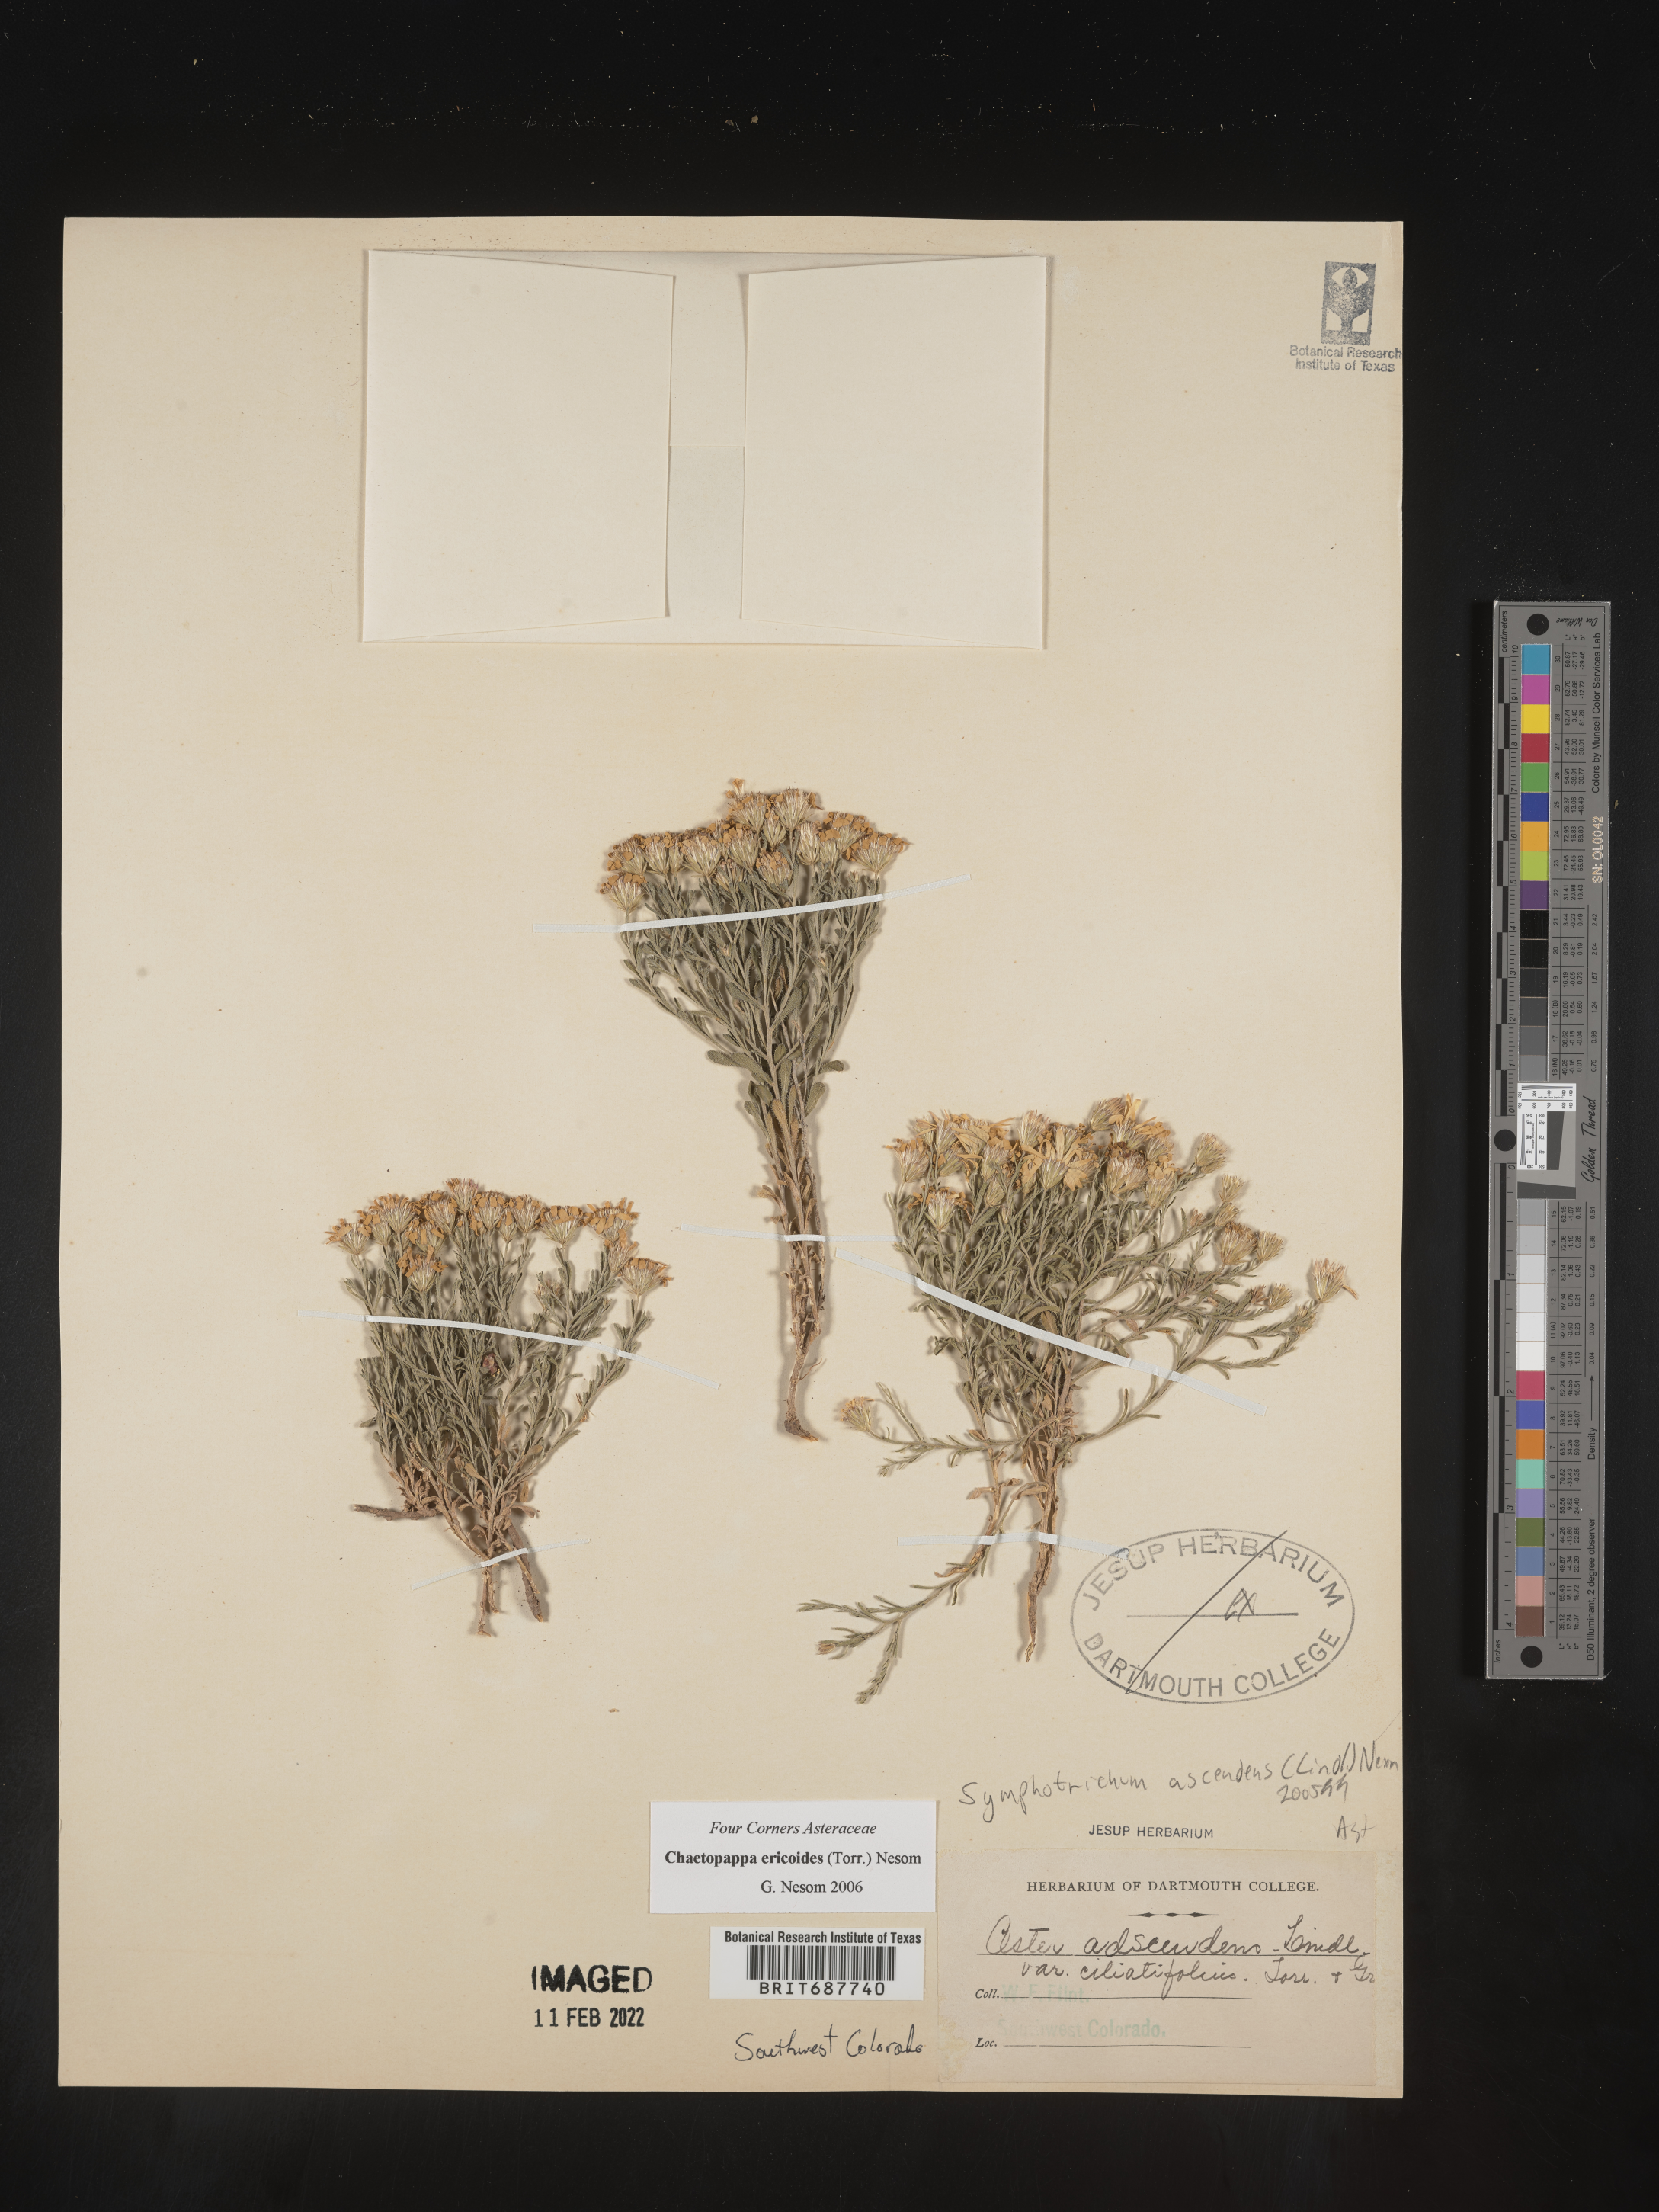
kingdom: Plantae
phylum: Tracheophyta
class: Magnoliopsida
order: Asterales
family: Asteraceae
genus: Chaetopappa
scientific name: Chaetopappa ericoides
